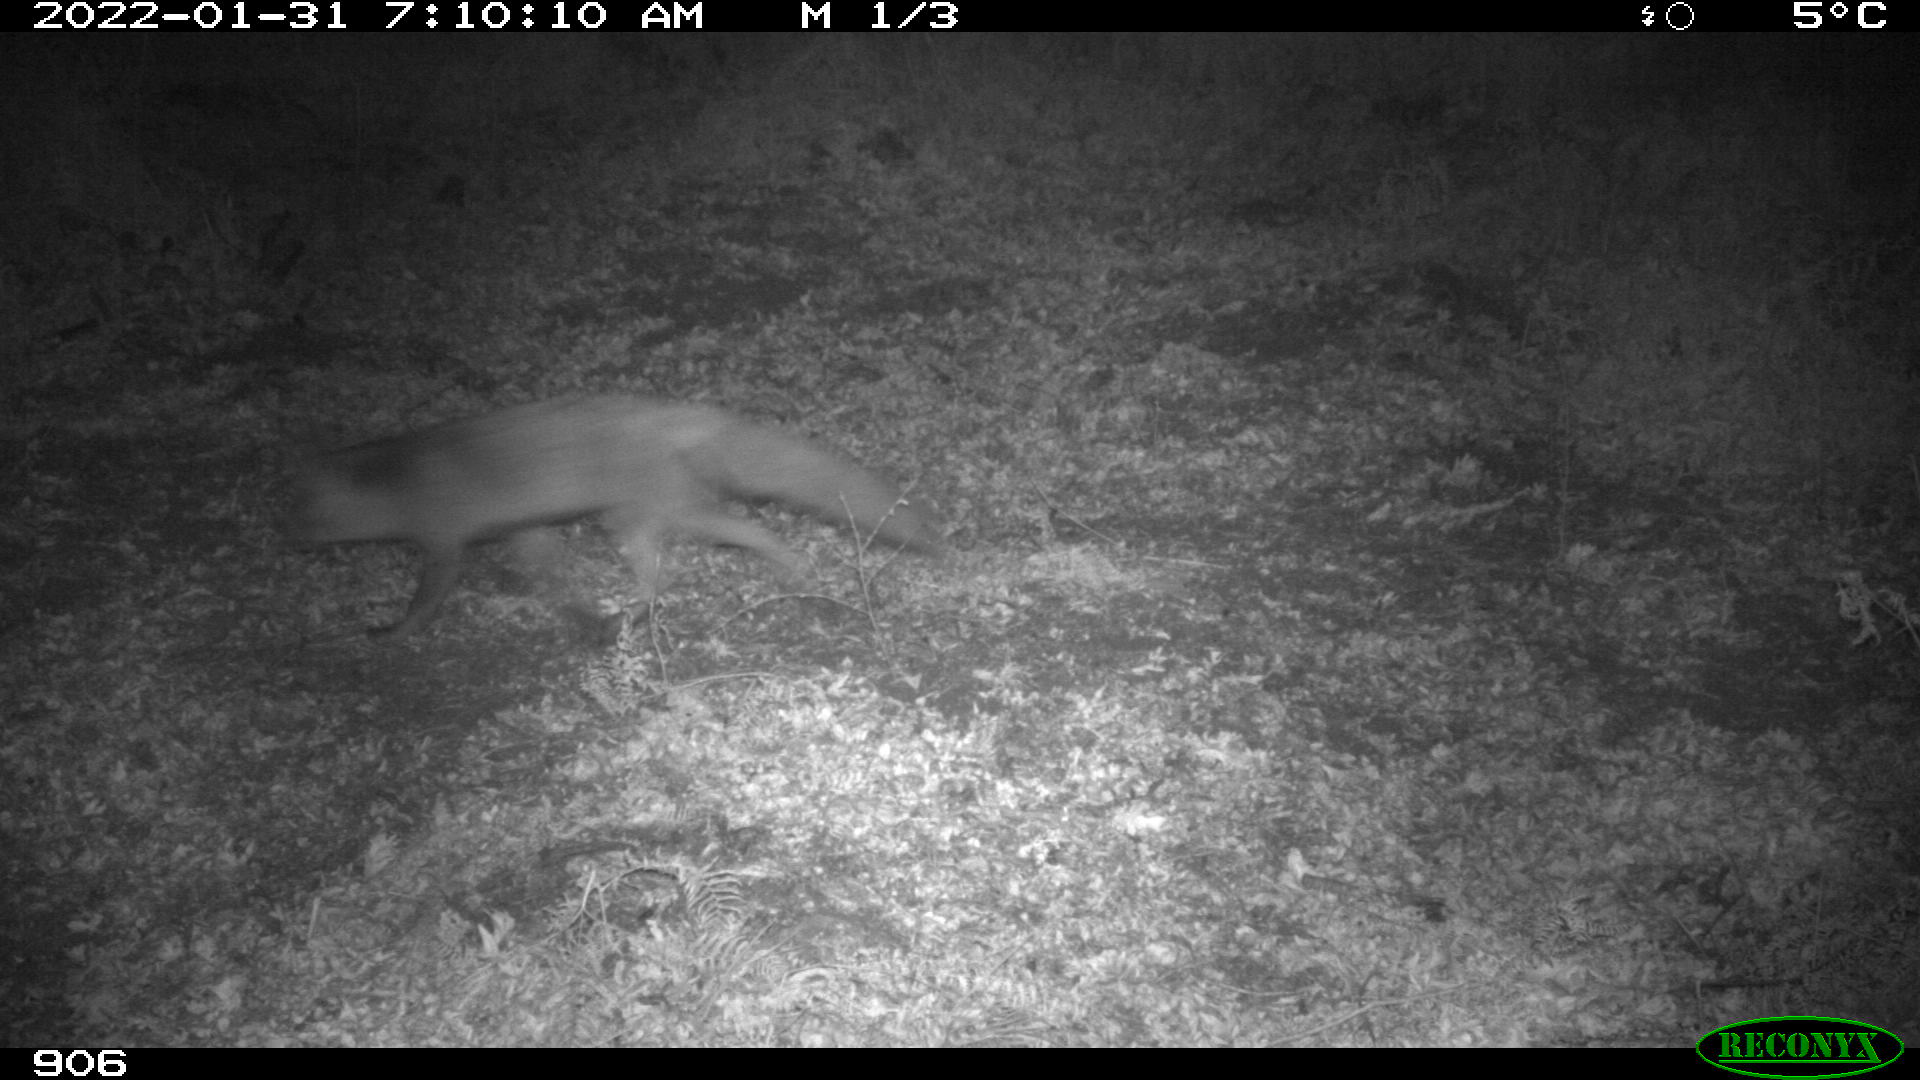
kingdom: Animalia
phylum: Chordata
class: Mammalia
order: Carnivora
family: Canidae
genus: Vulpes
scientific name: Vulpes vulpes
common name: Red fox
